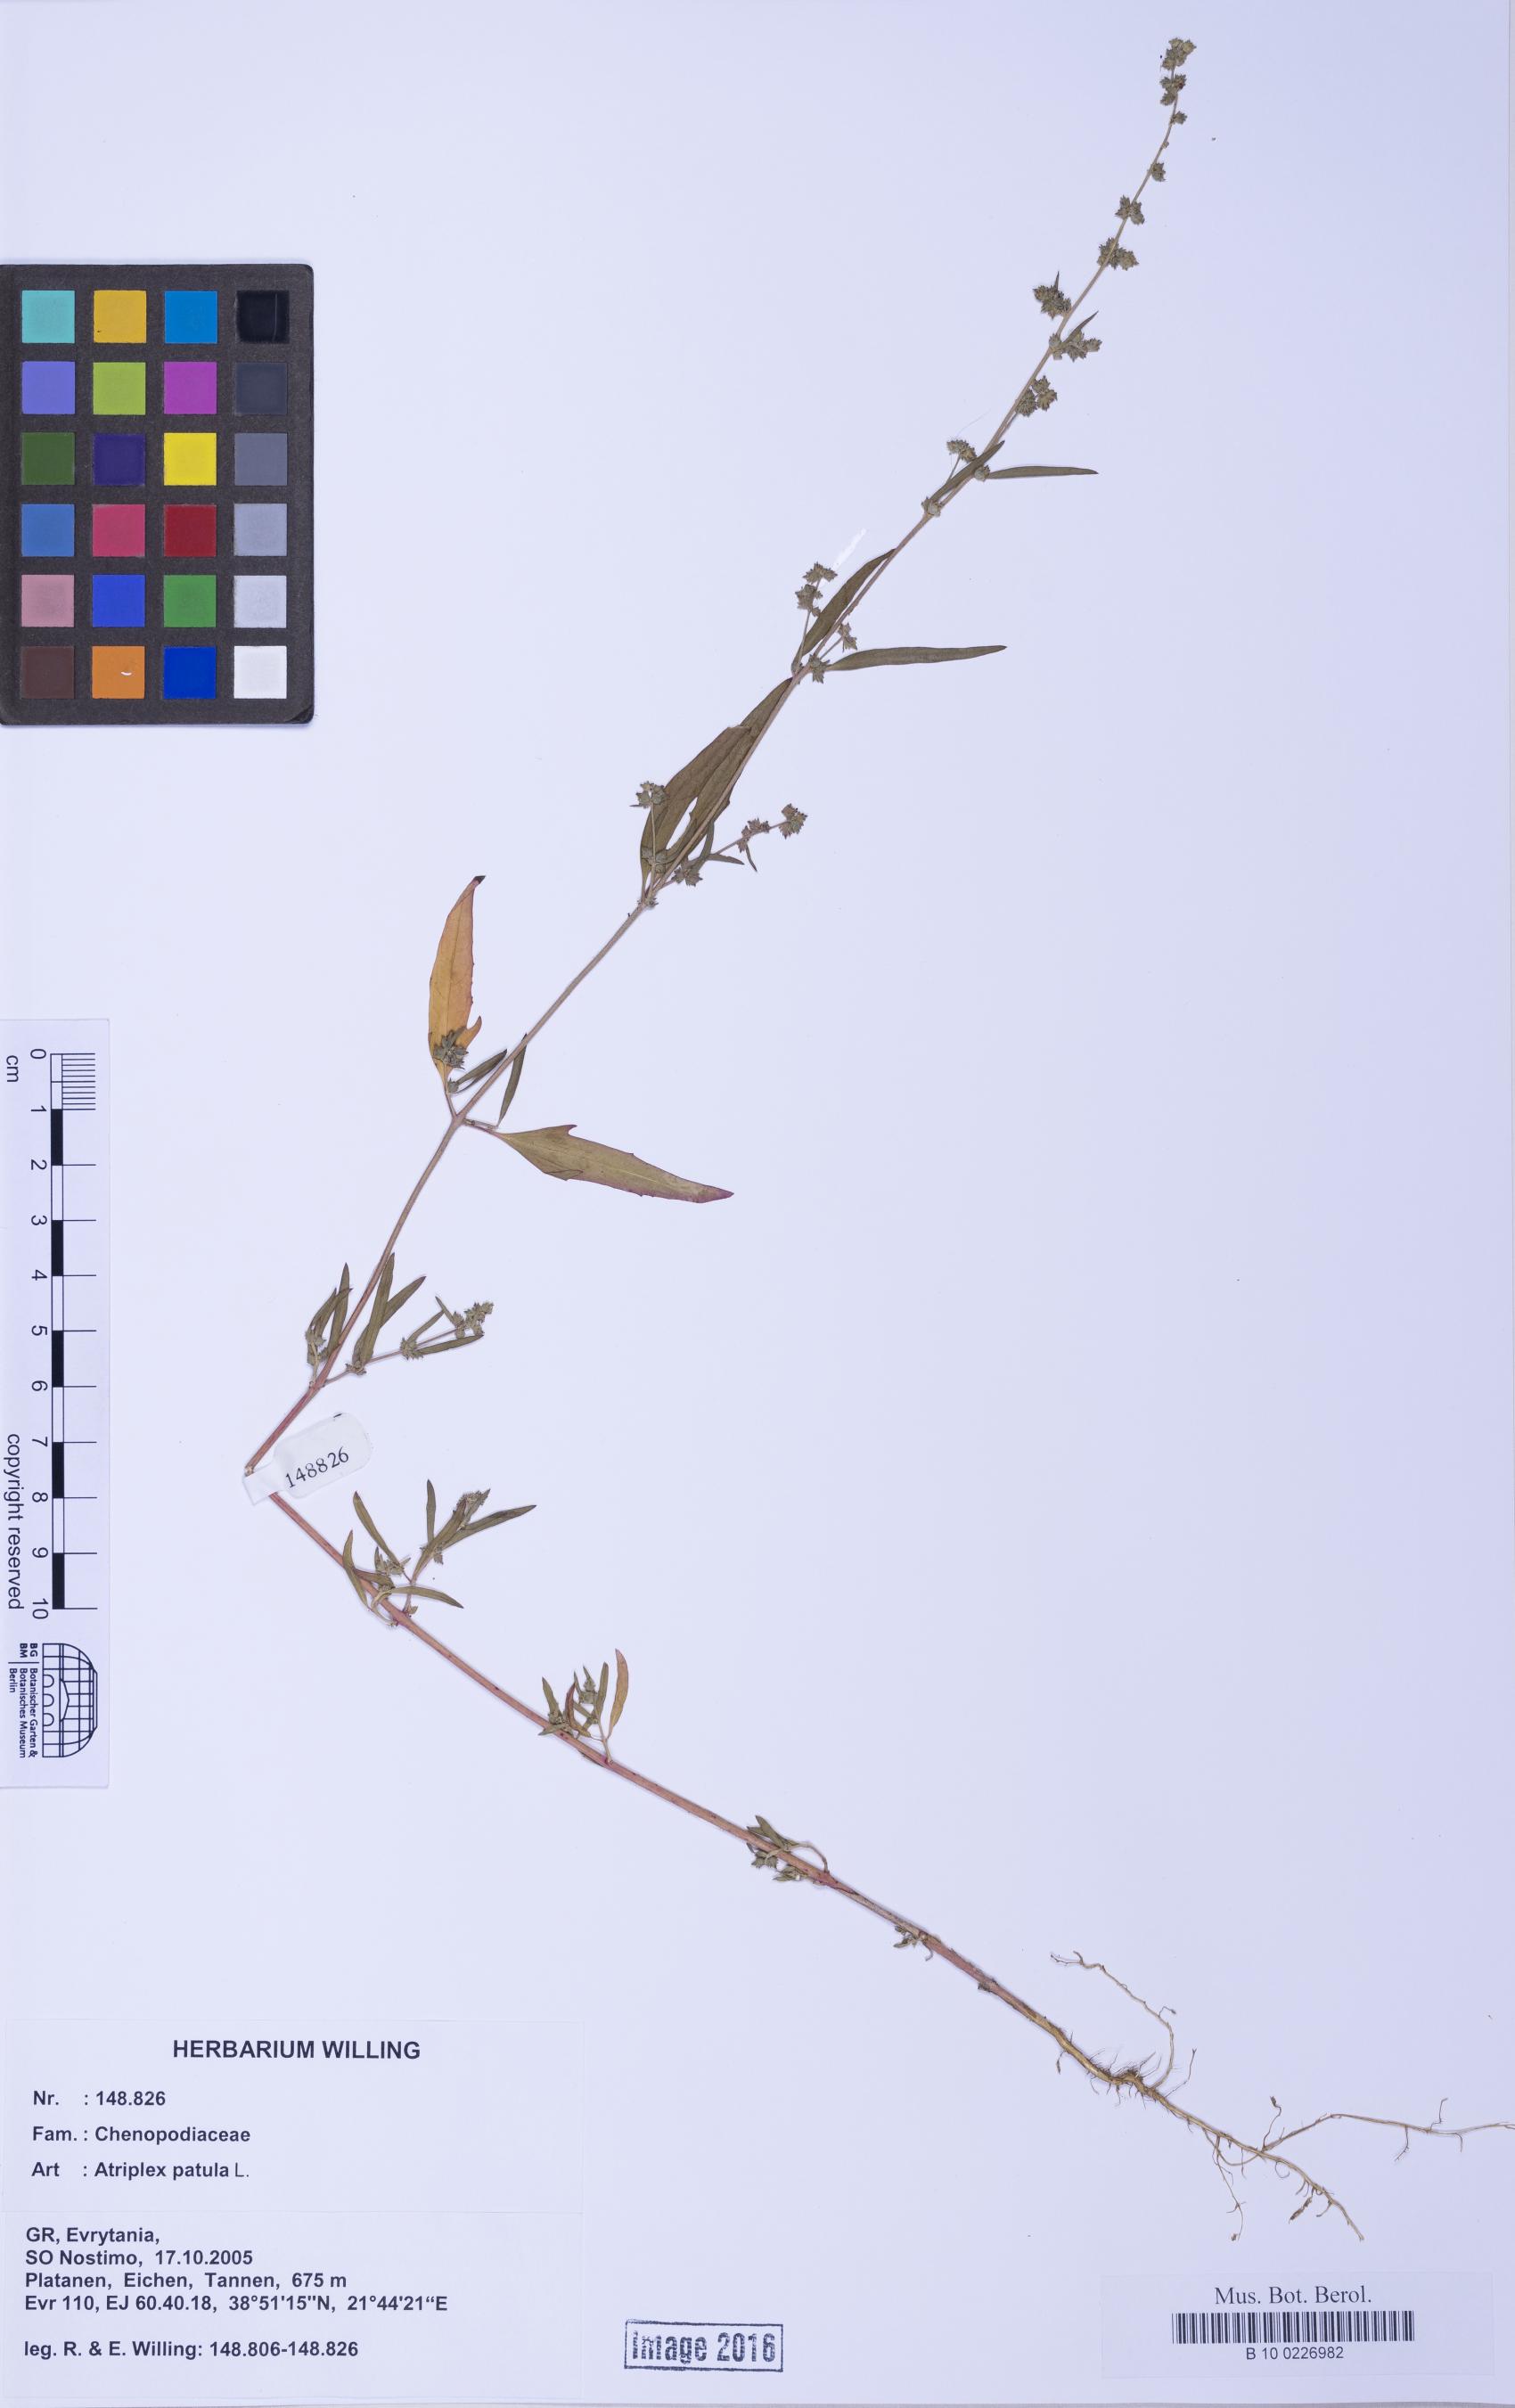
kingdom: Plantae
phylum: Tracheophyta
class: Magnoliopsida
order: Caryophyllales
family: Amaranthaceae
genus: Atriplex
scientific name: Atriplex patula
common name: Common orache
